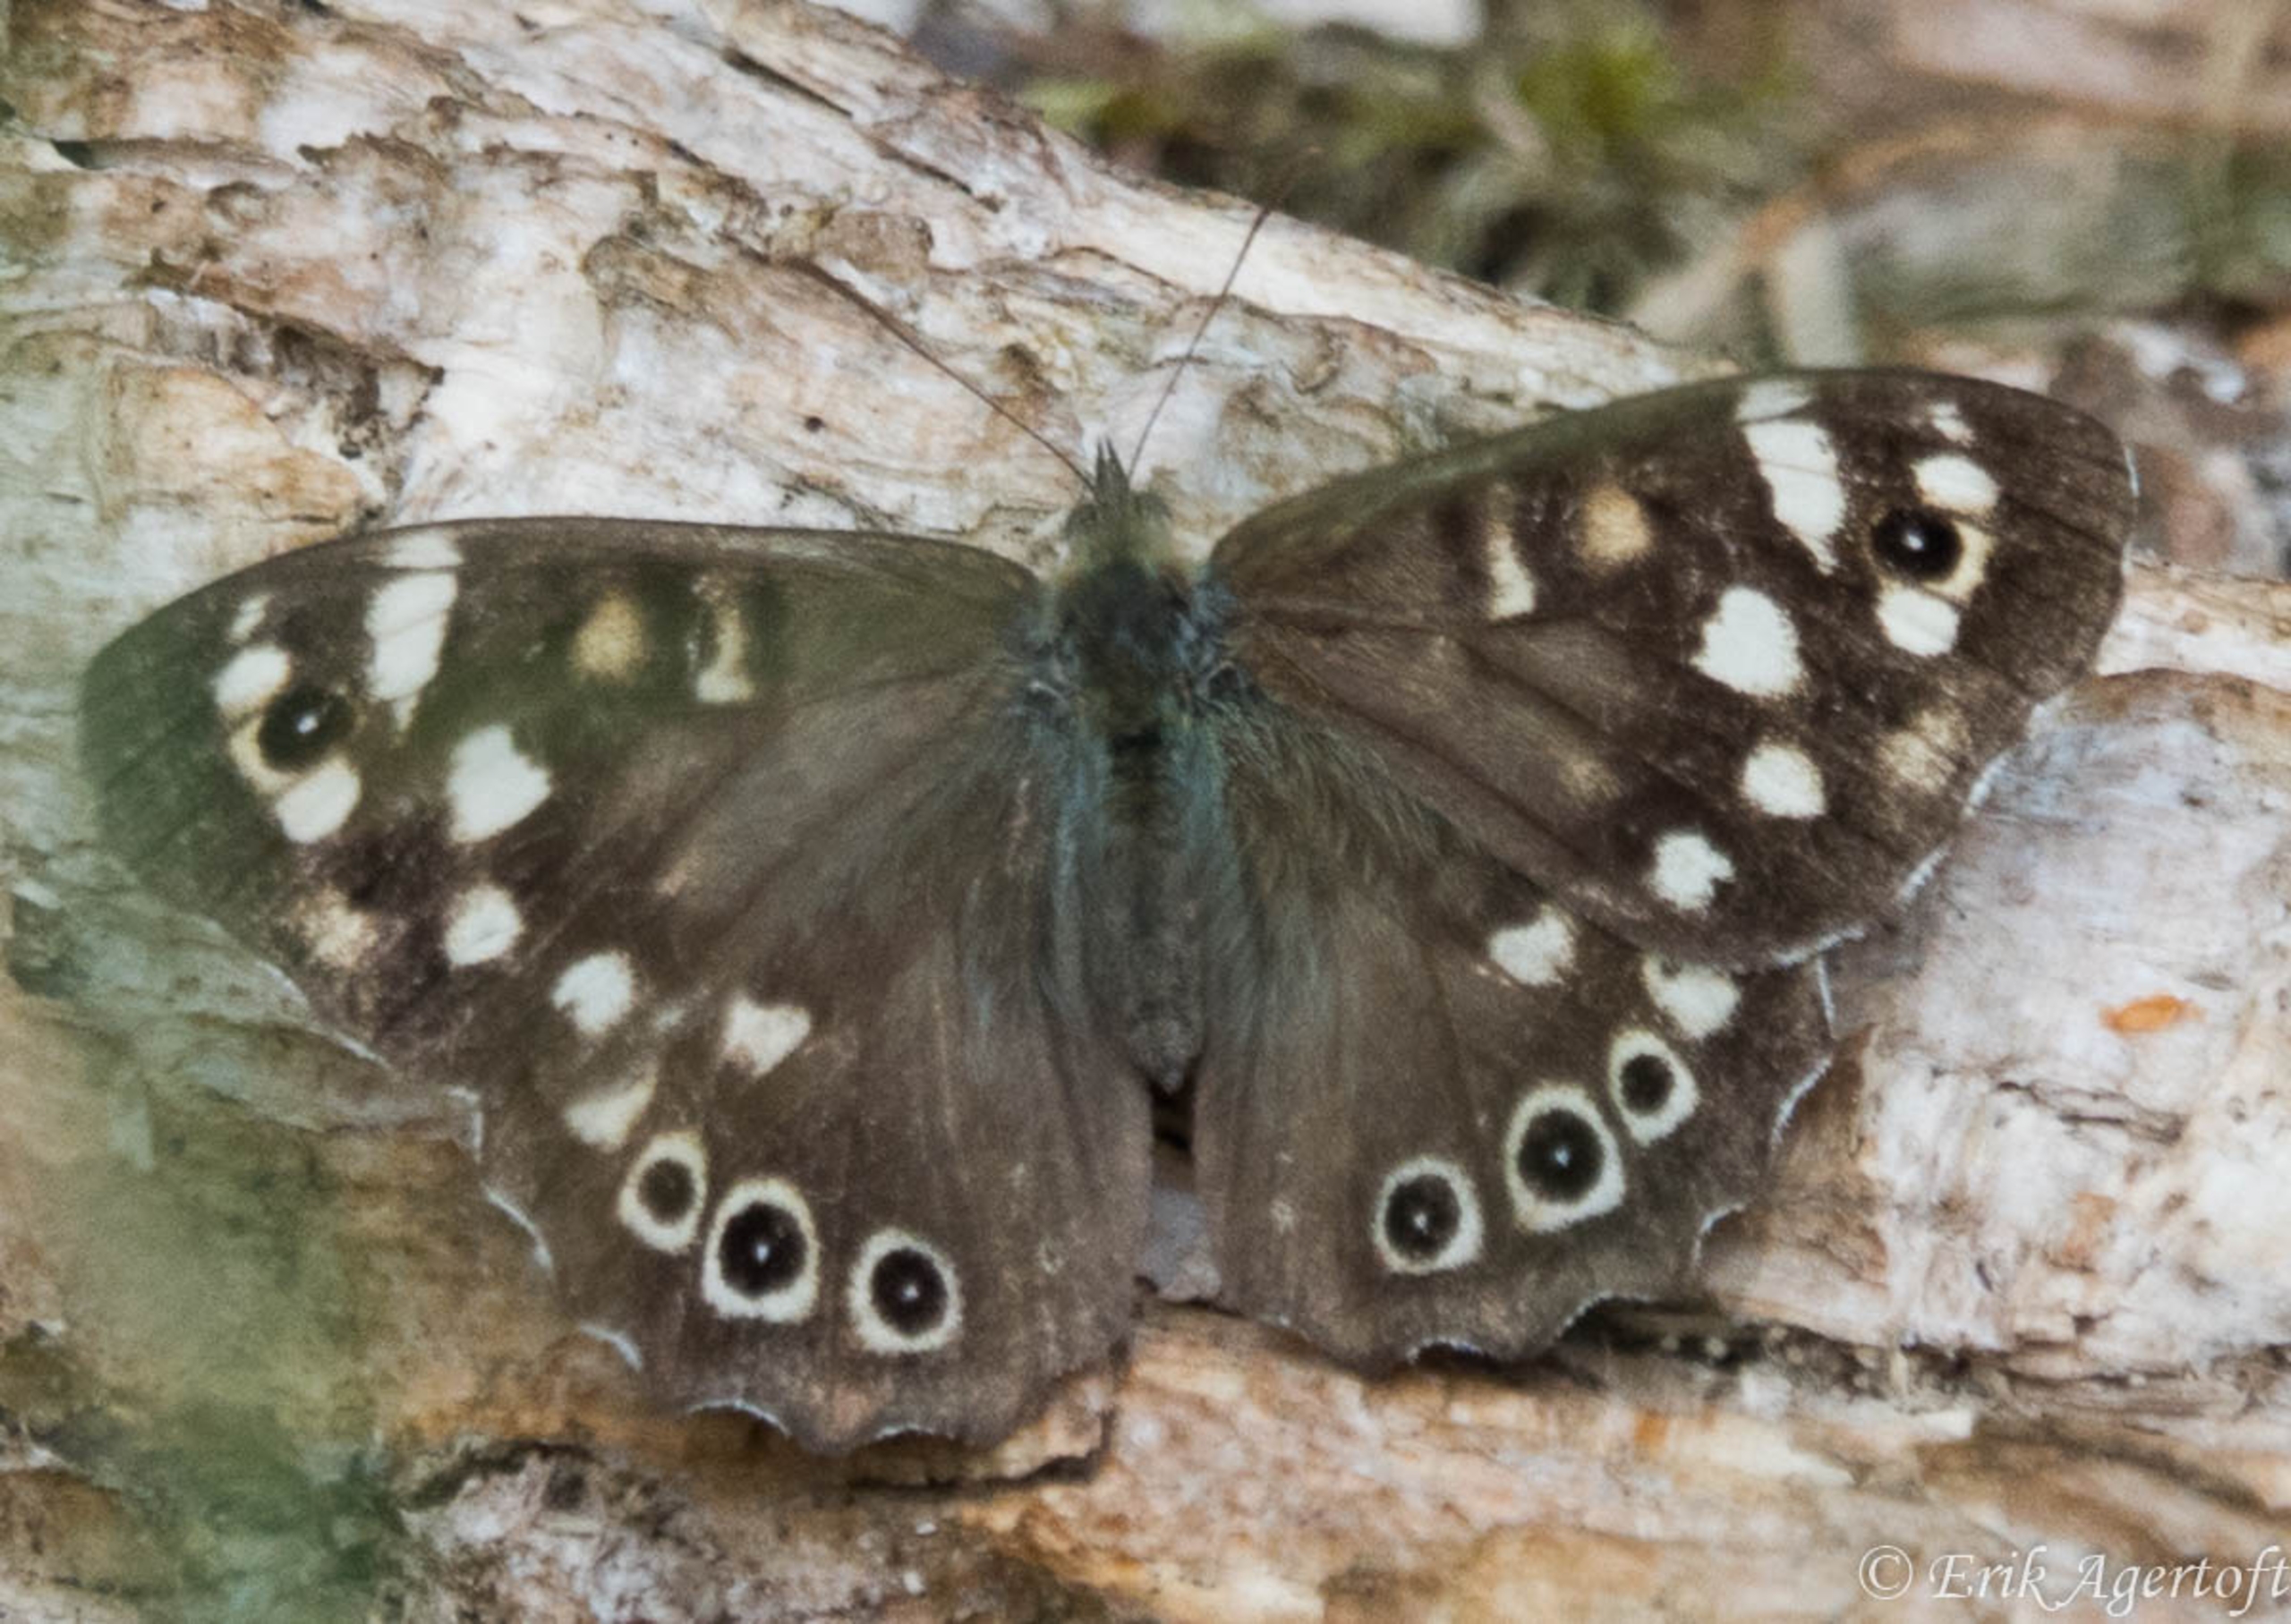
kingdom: Animalia
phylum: Arthropoda
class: Insecta
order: Lepidoptera
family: Nymphalidae
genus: Pararge
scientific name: Pararge aegeria
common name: Skovrandøje
